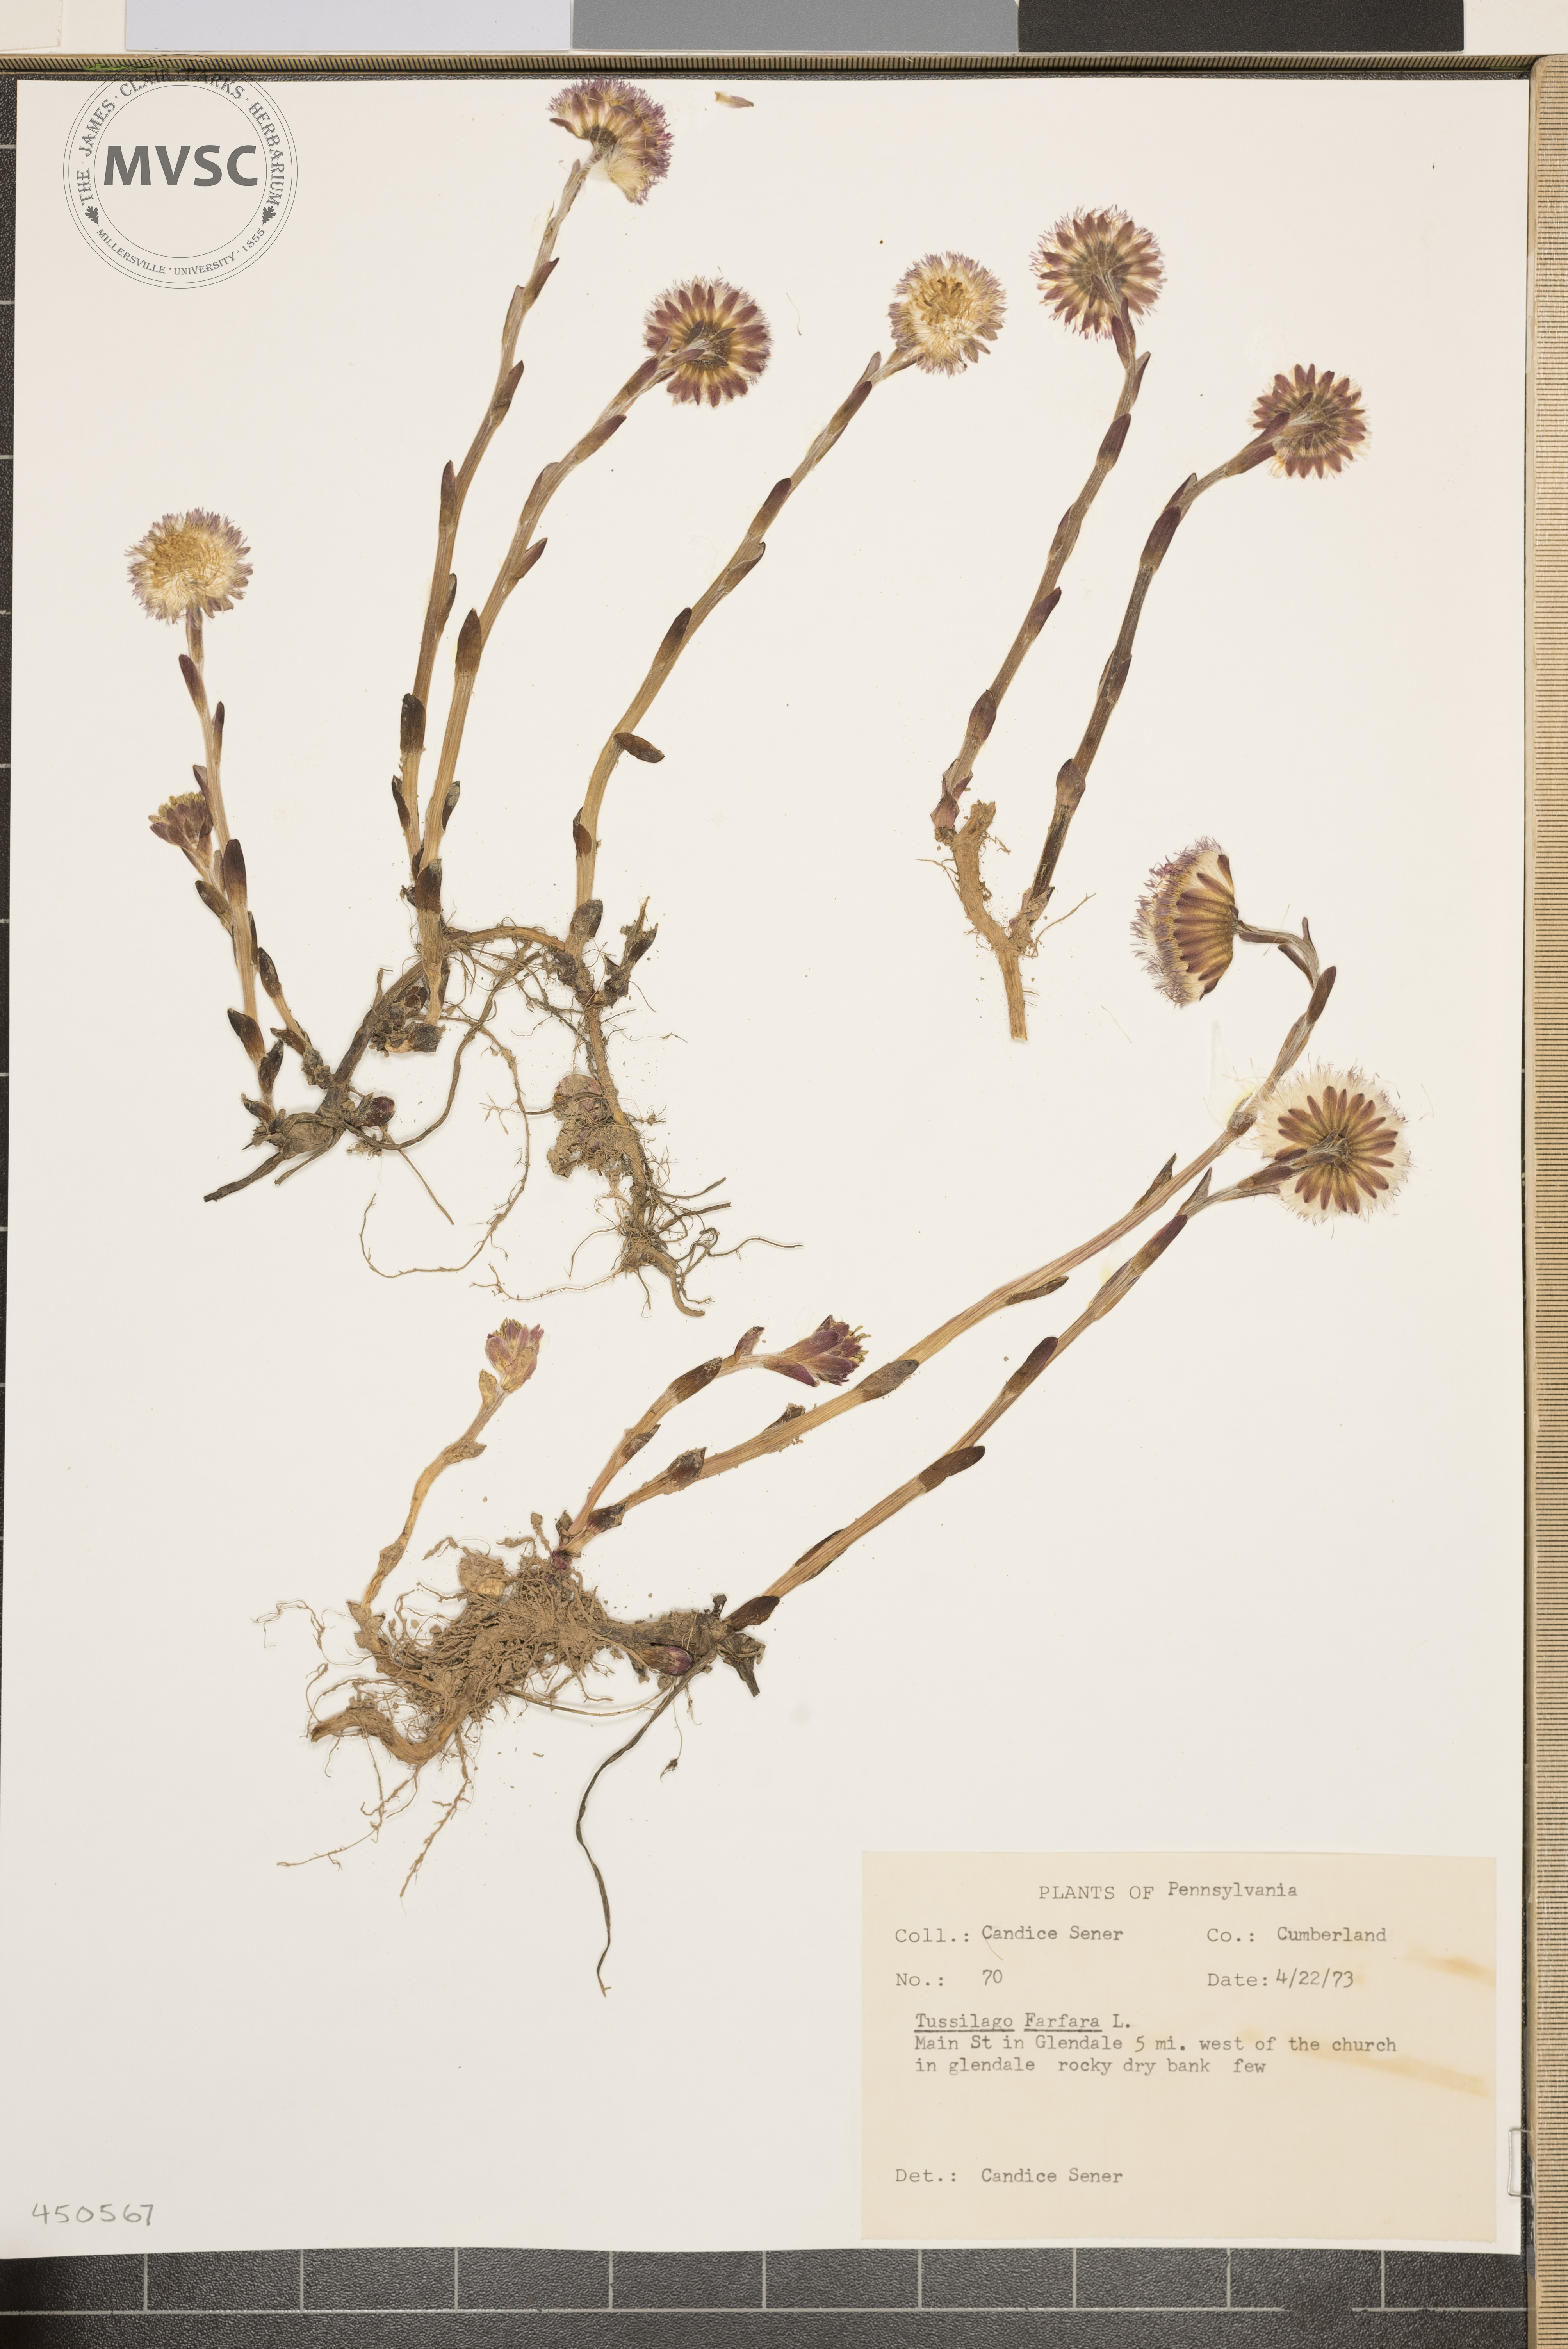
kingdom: Plantae
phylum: Tracheophyta
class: Magnoliopsida
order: Asterales
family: Asteraceae
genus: Tussilago
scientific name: Tussilago farfara
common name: Coltsfoot
